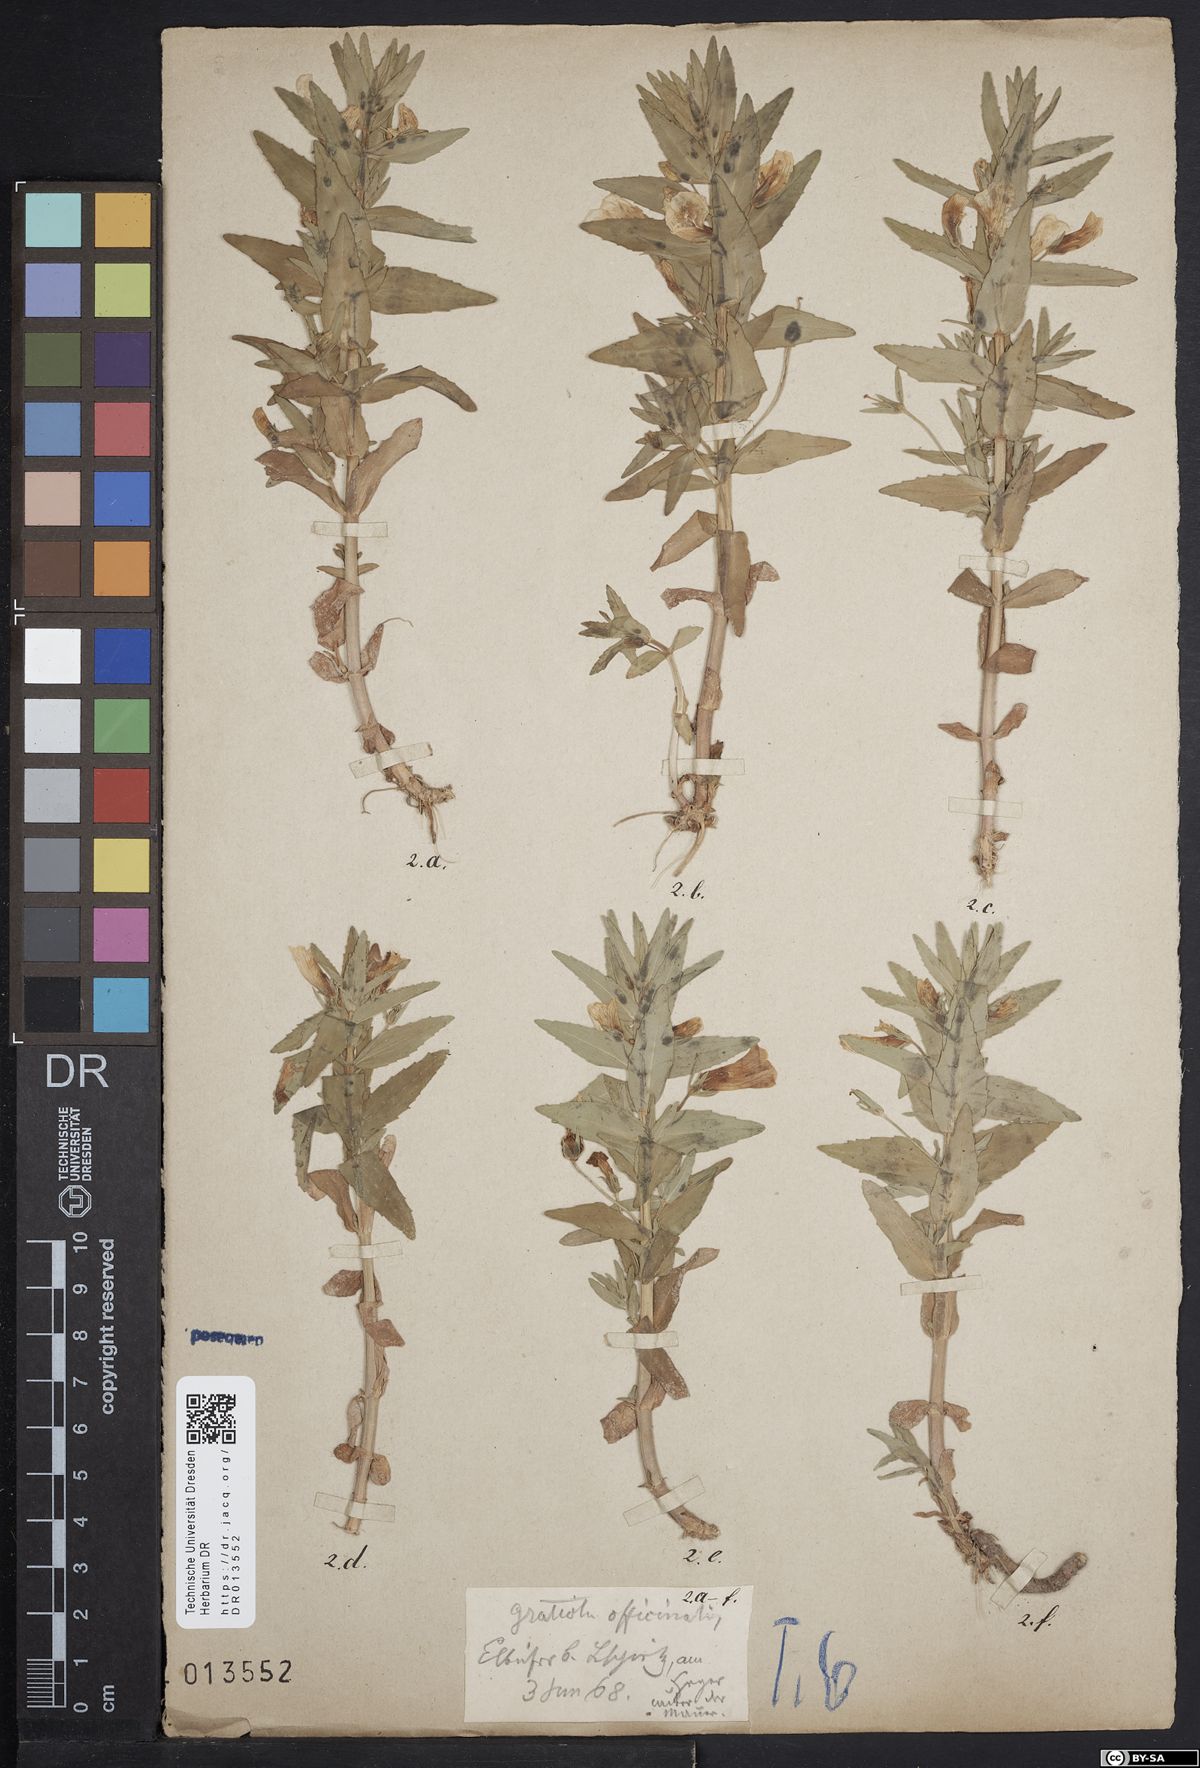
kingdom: Plantae
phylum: Tracheophyta
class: Magnoliopsida
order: Lamiales
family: Plantaginaceae
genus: Gratiola
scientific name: Gratiola officinalis
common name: Gratiola
